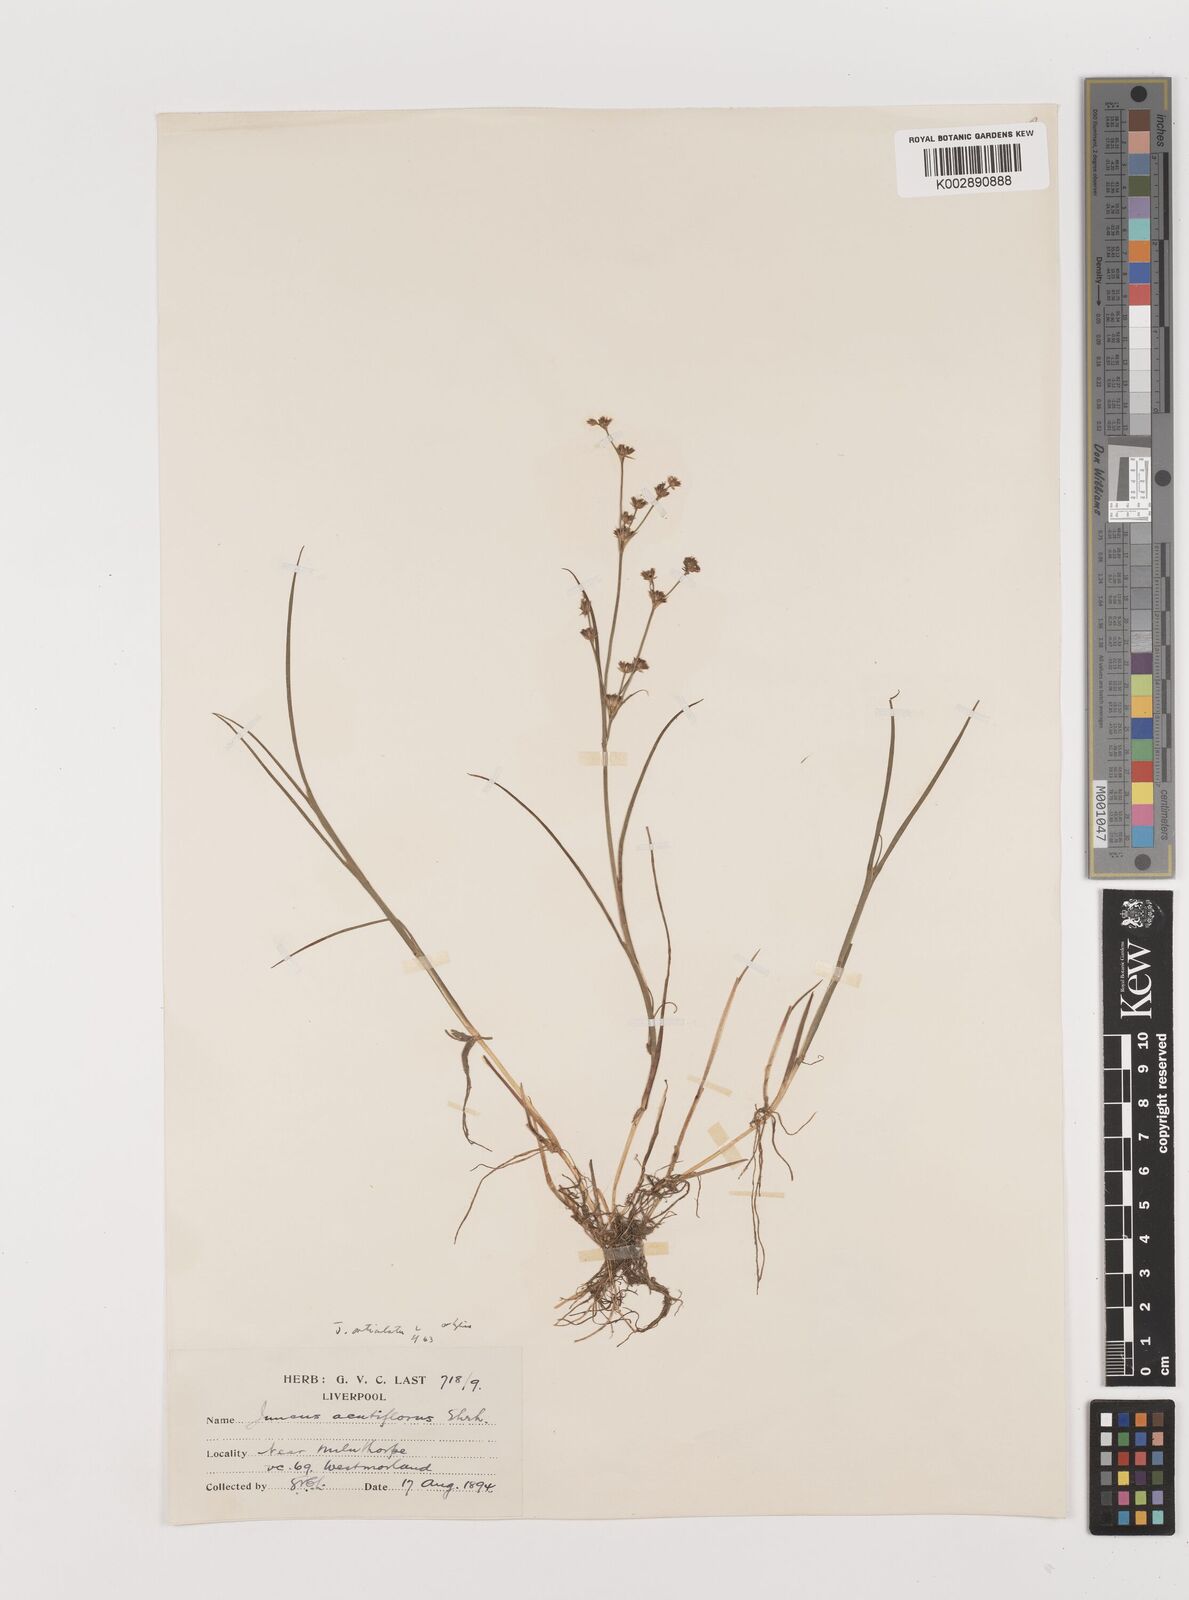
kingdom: Plantae
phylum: Tracheophyta
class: Liliopsida
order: Poales
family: Juncaceae
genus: Juncus
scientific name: Juncus
